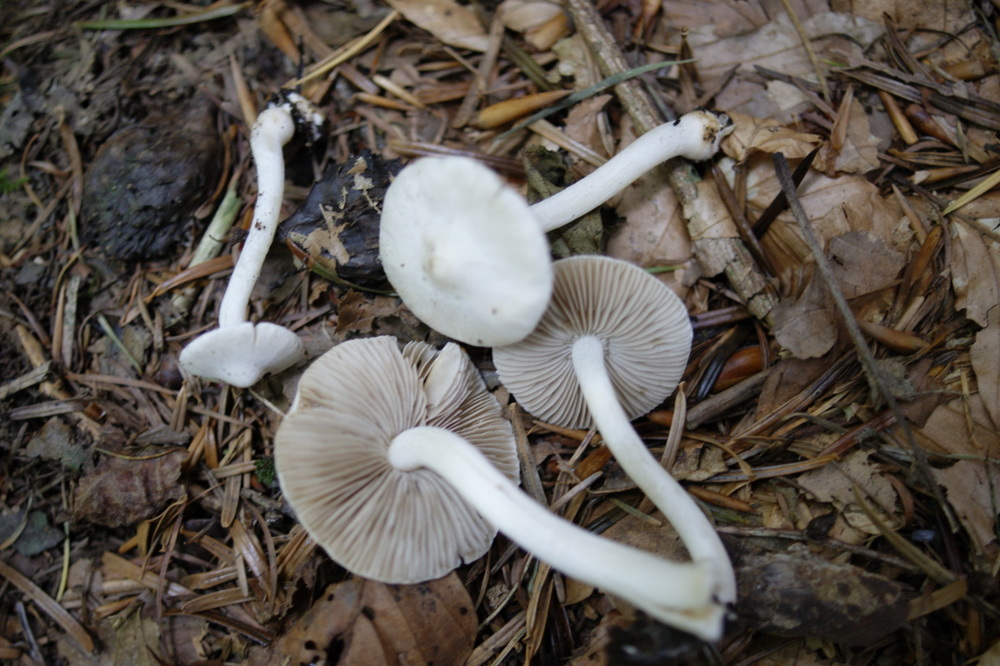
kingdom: Fungi
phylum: Basidiomycota
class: Agaricomycetes
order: Agaricales
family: Inocybaceae
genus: Inocybe
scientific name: Inocybe
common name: almindelig trævlhat
